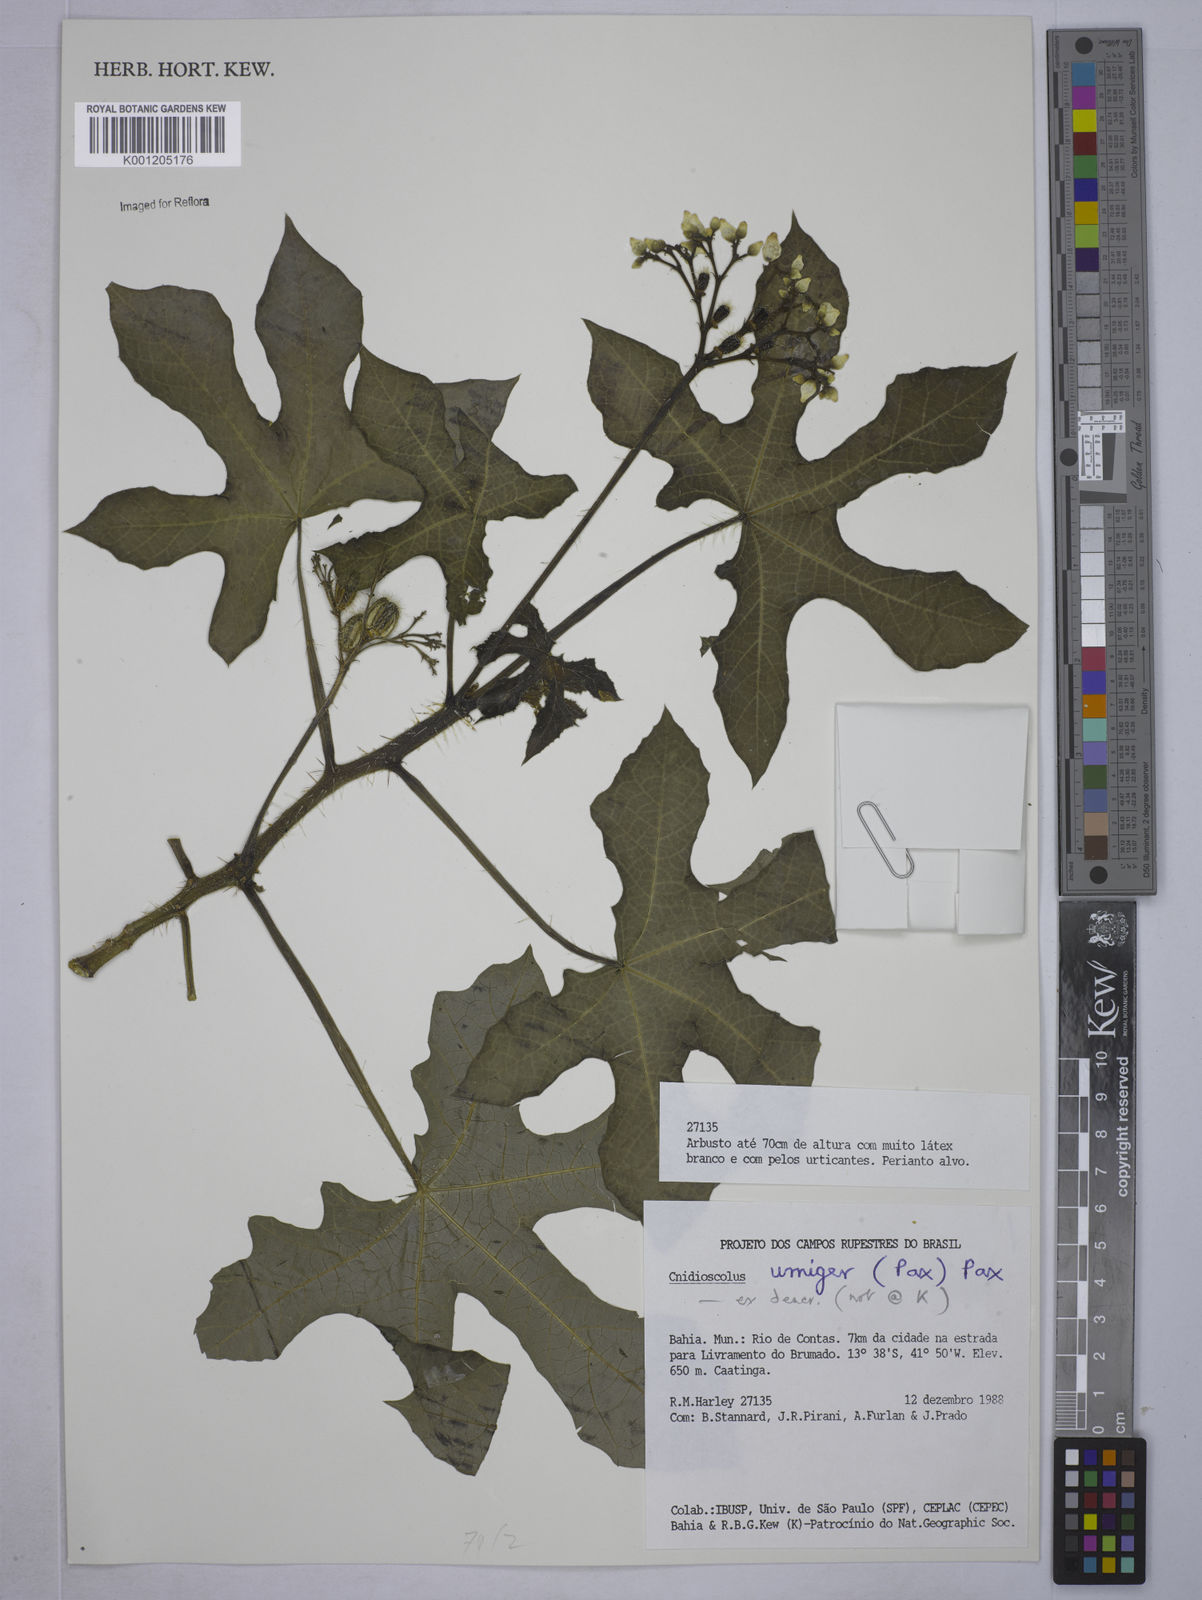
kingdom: Plantae
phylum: Tracheophyta
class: Magnoliopsida
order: Malpighiales
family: Euphorbiaceae
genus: Cnidoscolus
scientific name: Cnidoscolus urnigerus
